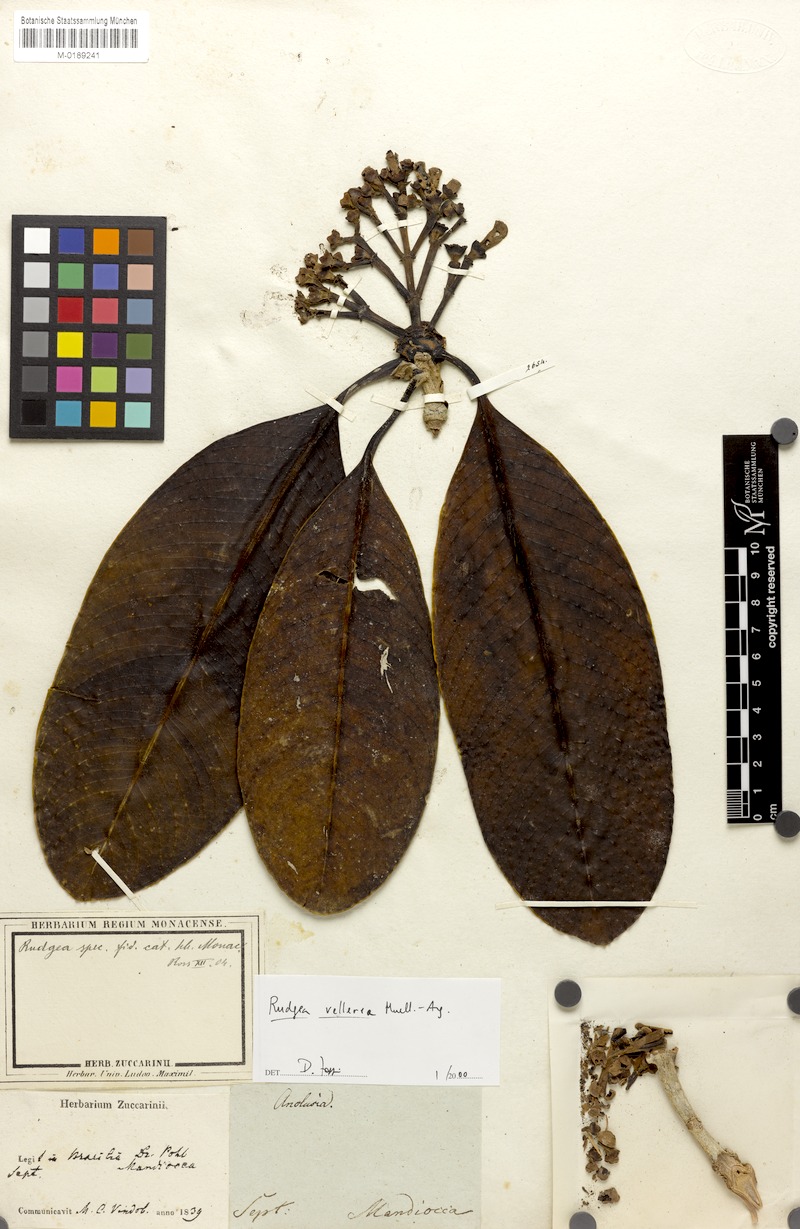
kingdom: Plantae
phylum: Tracheophyta
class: Magnoliopsida
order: Gentianales
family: Rubiaceae
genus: Rudgea
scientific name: Rudgea vellerea
